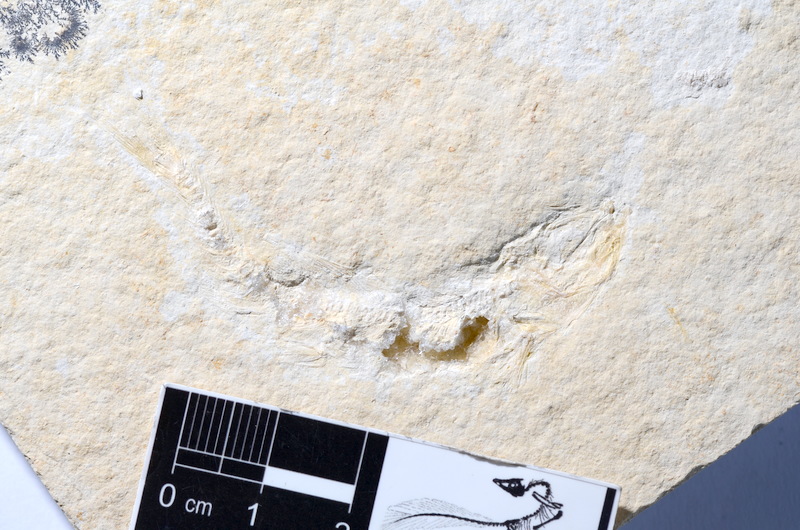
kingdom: Animalia
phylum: Chordata
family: Ascalaboidae
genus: Tharsis
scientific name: Tharsis dubius
